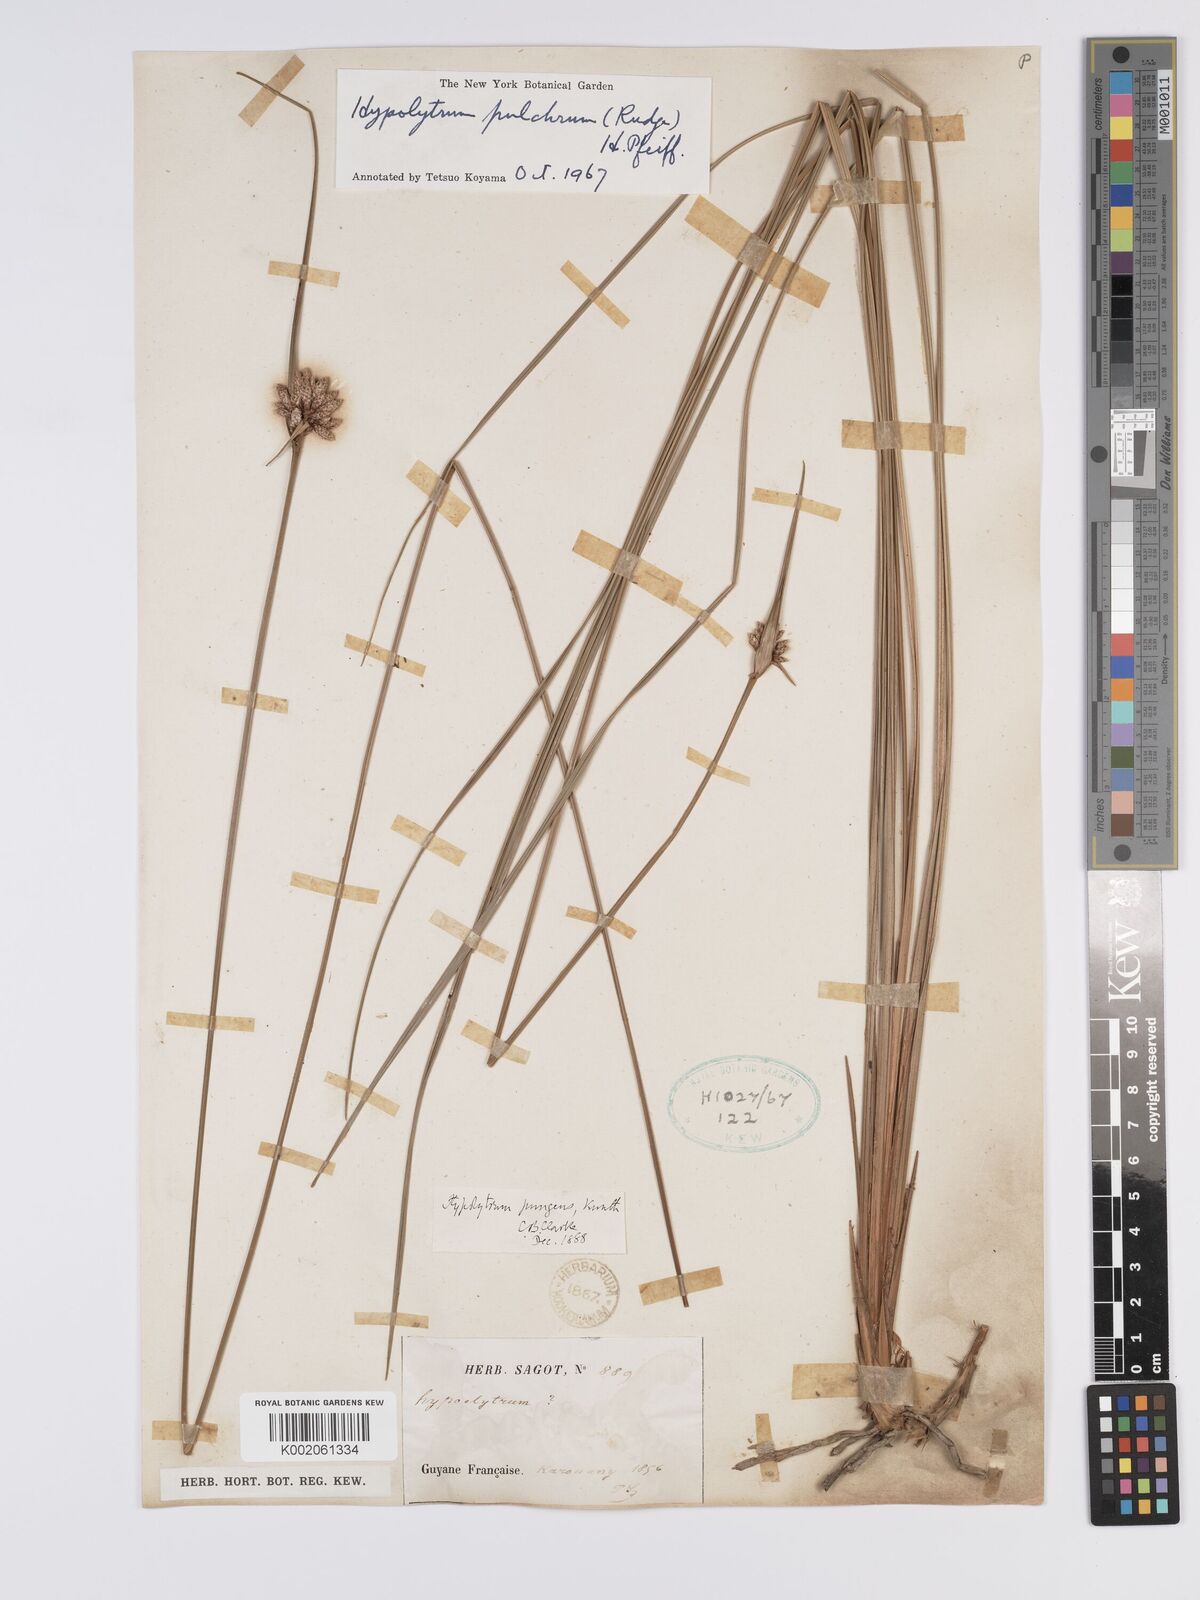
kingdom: Plantae
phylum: Tracheophyta
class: Liliopsida
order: Poales
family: Cyperaceae
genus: Hypolytrum
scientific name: Hypolytrum pulchrum
